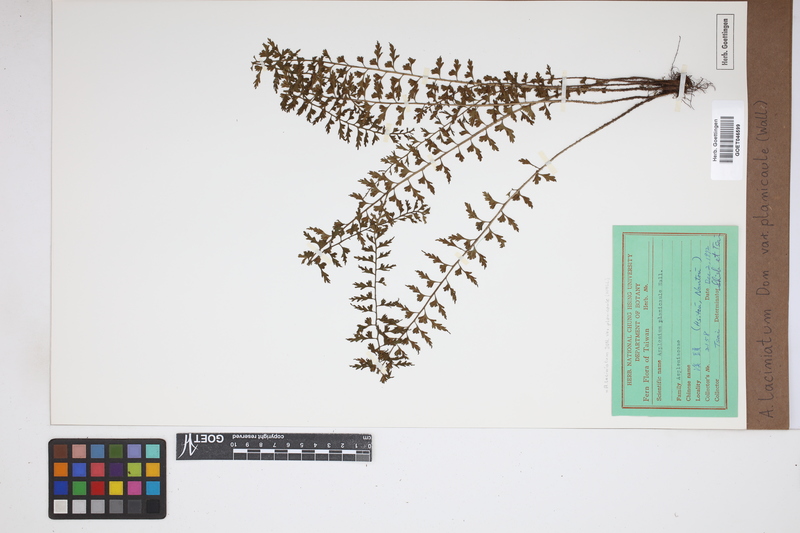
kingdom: Plantae
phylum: Tracheophyta
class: Polypodiopsida
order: Polypodiales
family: Aspleniaceae
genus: Asplenium
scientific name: Asplenium laciniatum
